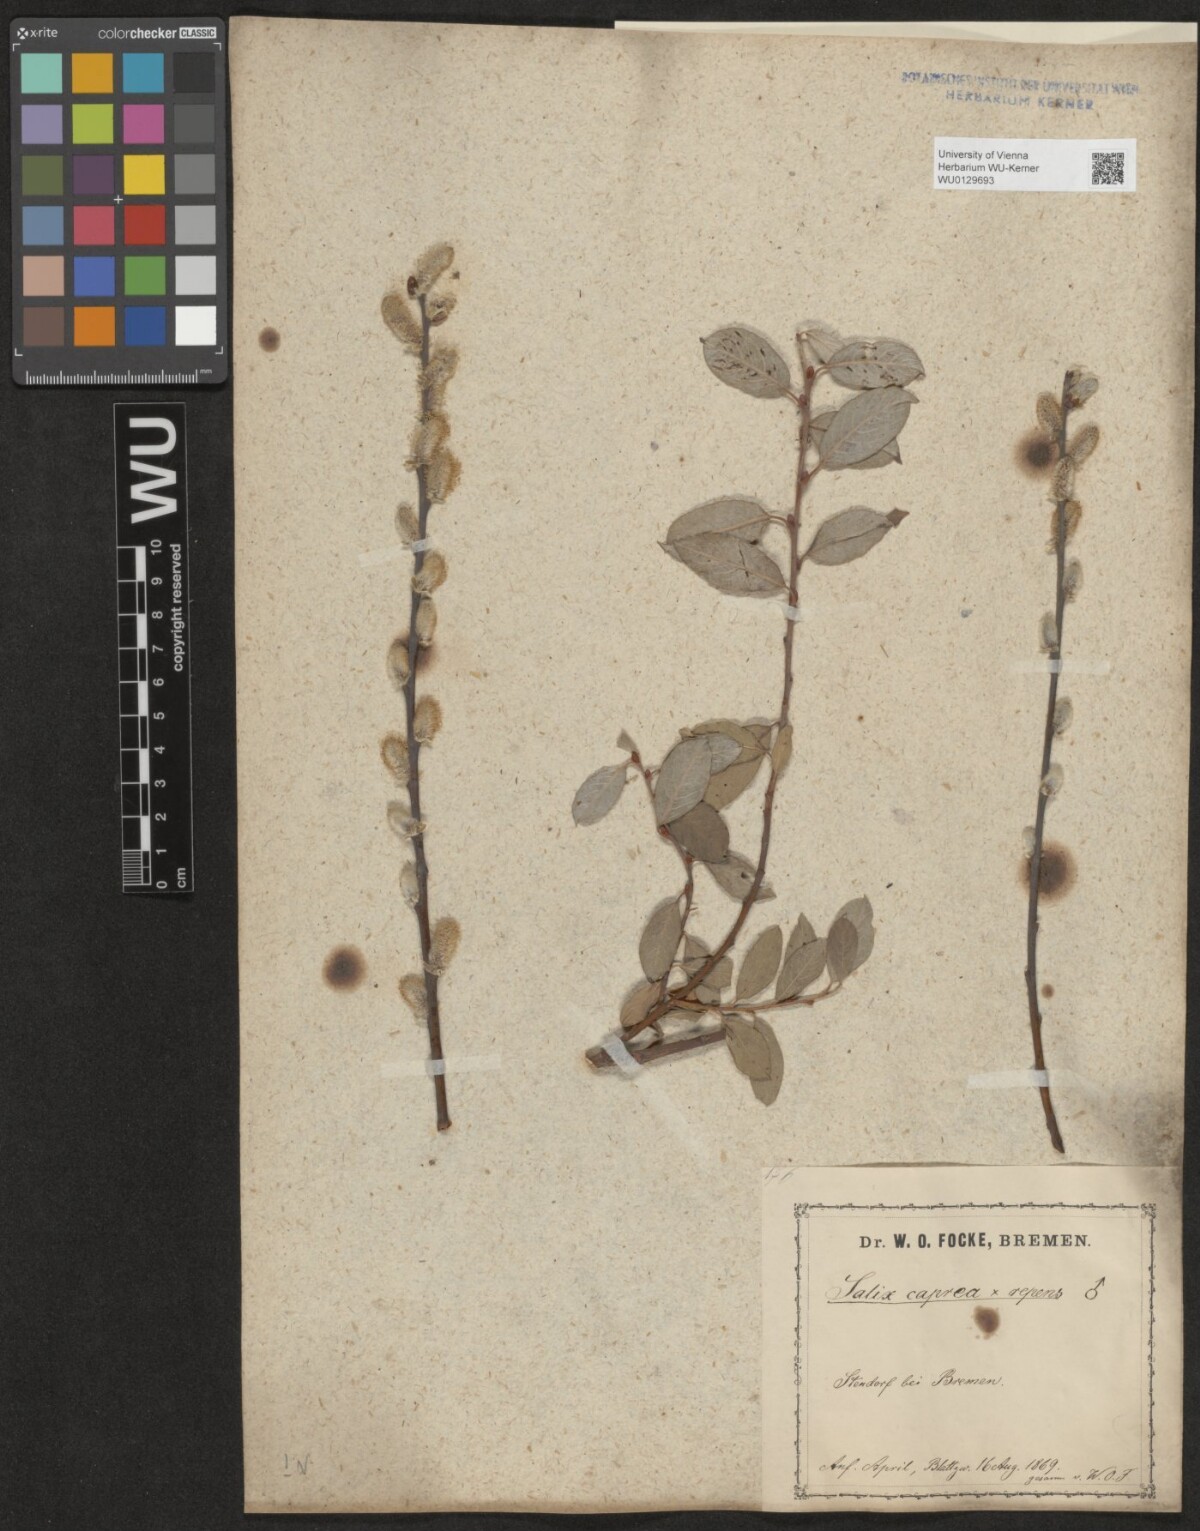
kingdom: Plantae
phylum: Tracheophyta
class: Magnoliopsida
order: Malpighiales
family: Salicaceae
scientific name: Salicaceae
